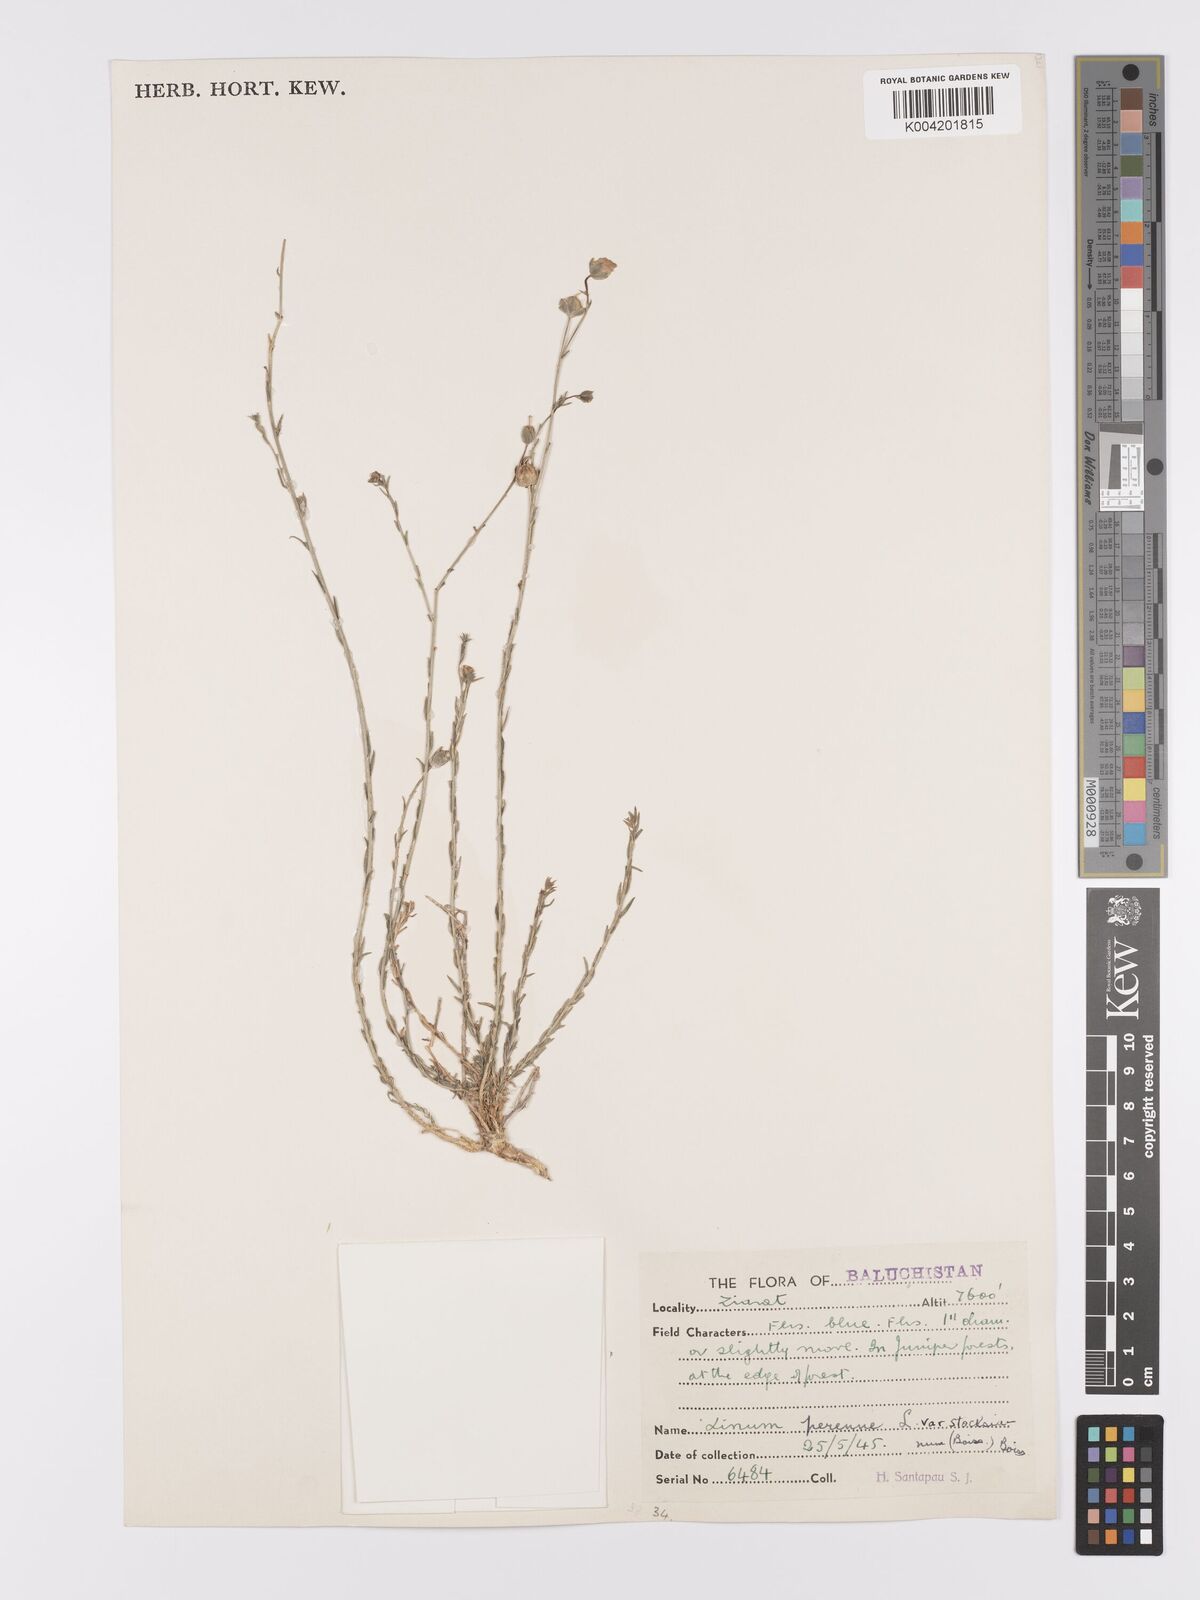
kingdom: Plantae
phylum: Tracheophyta
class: Magnoliopsida
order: Malpighiales
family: Linaceae
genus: Linum
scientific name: Linum stocksianum
